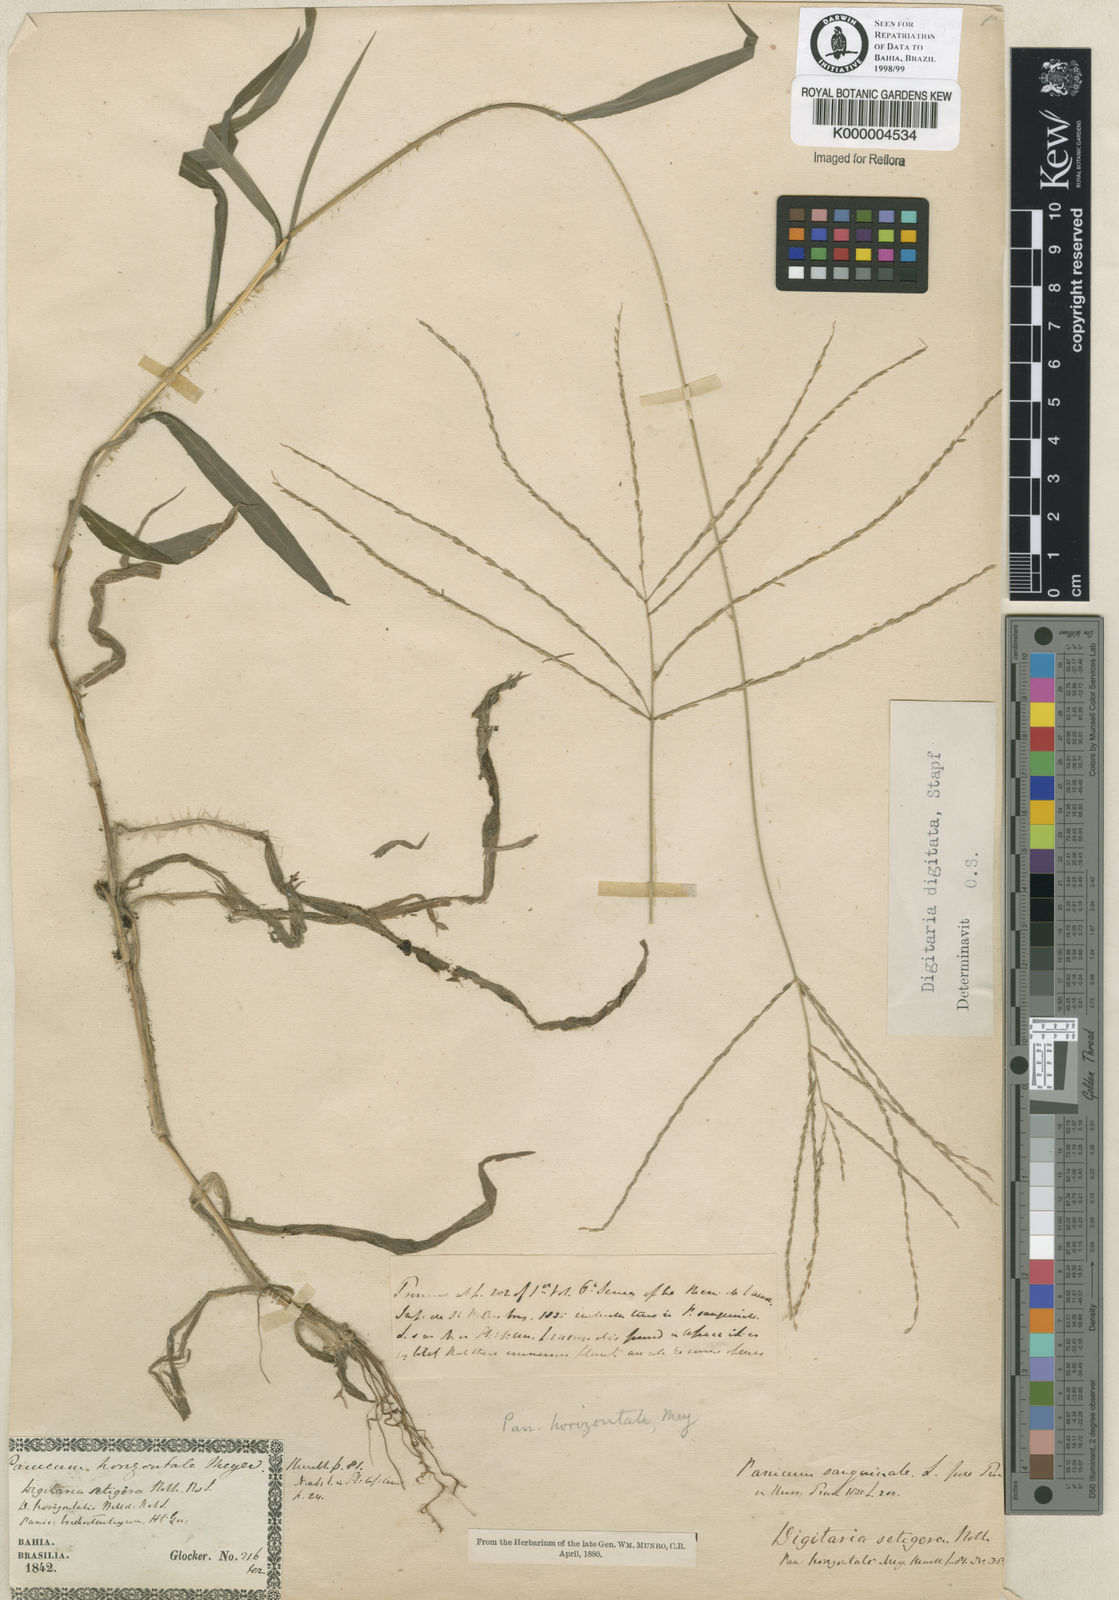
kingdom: Plantae
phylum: Tracheophyta
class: Liliopsida
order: Poales
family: Poaceae
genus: Digitaria
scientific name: Digitaria horizontalis
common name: Jamaican crabgrass
